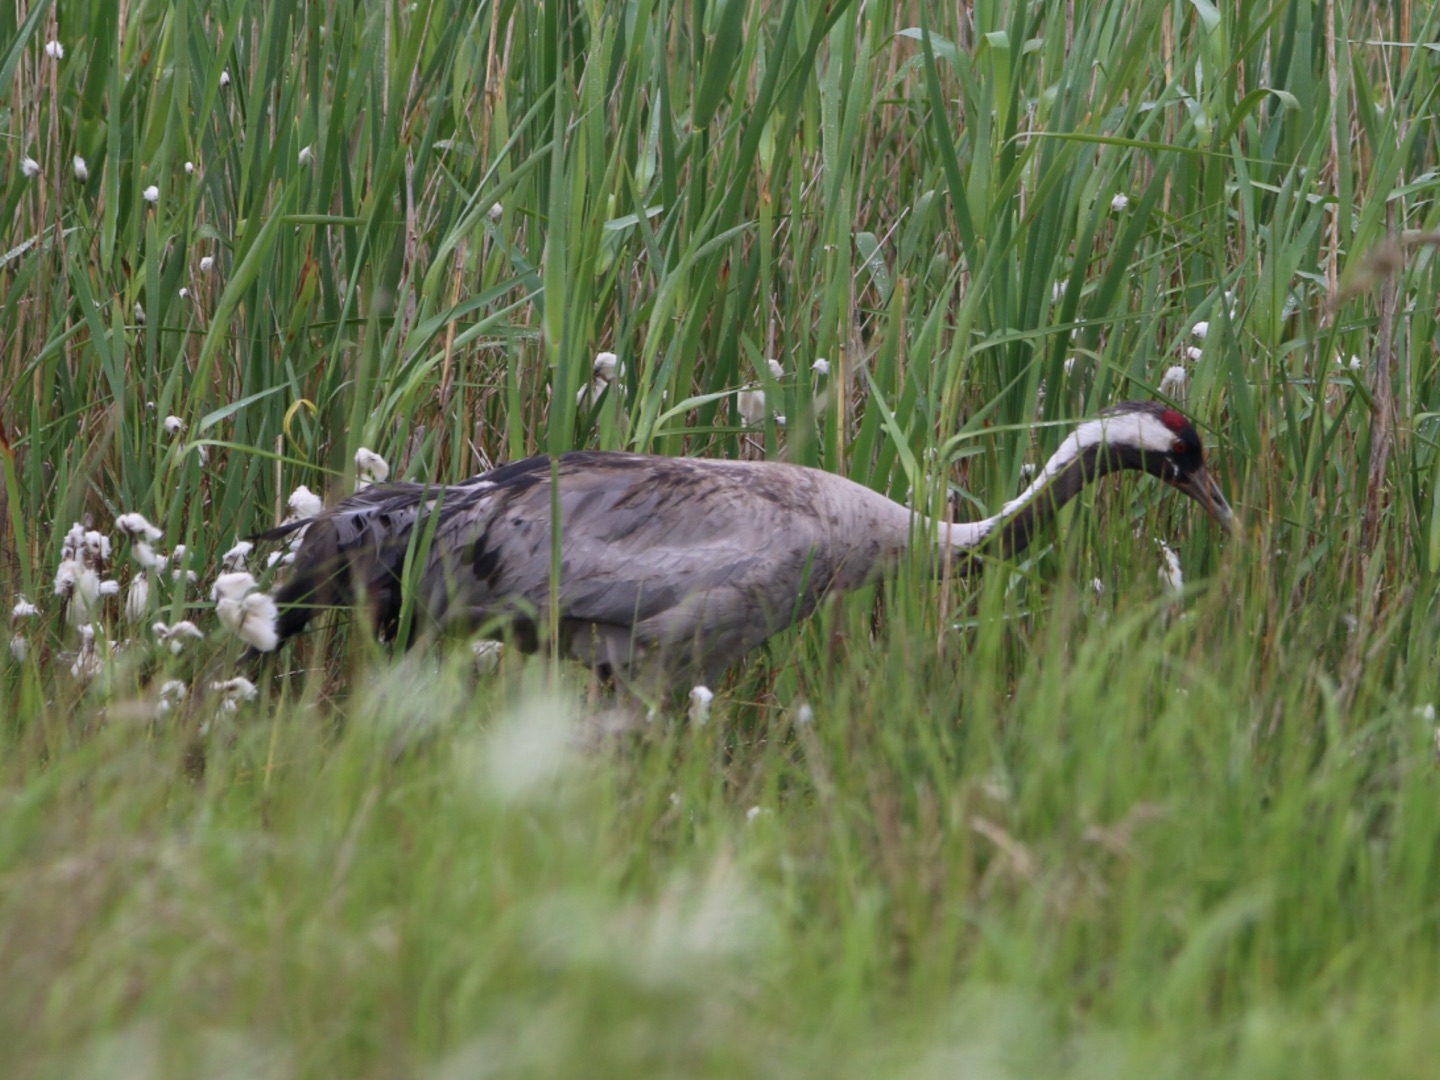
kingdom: Animalia
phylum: Chordata
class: Aves
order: Gruiformes
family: Gruidae
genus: Grus
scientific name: Grus grus
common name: Trane
